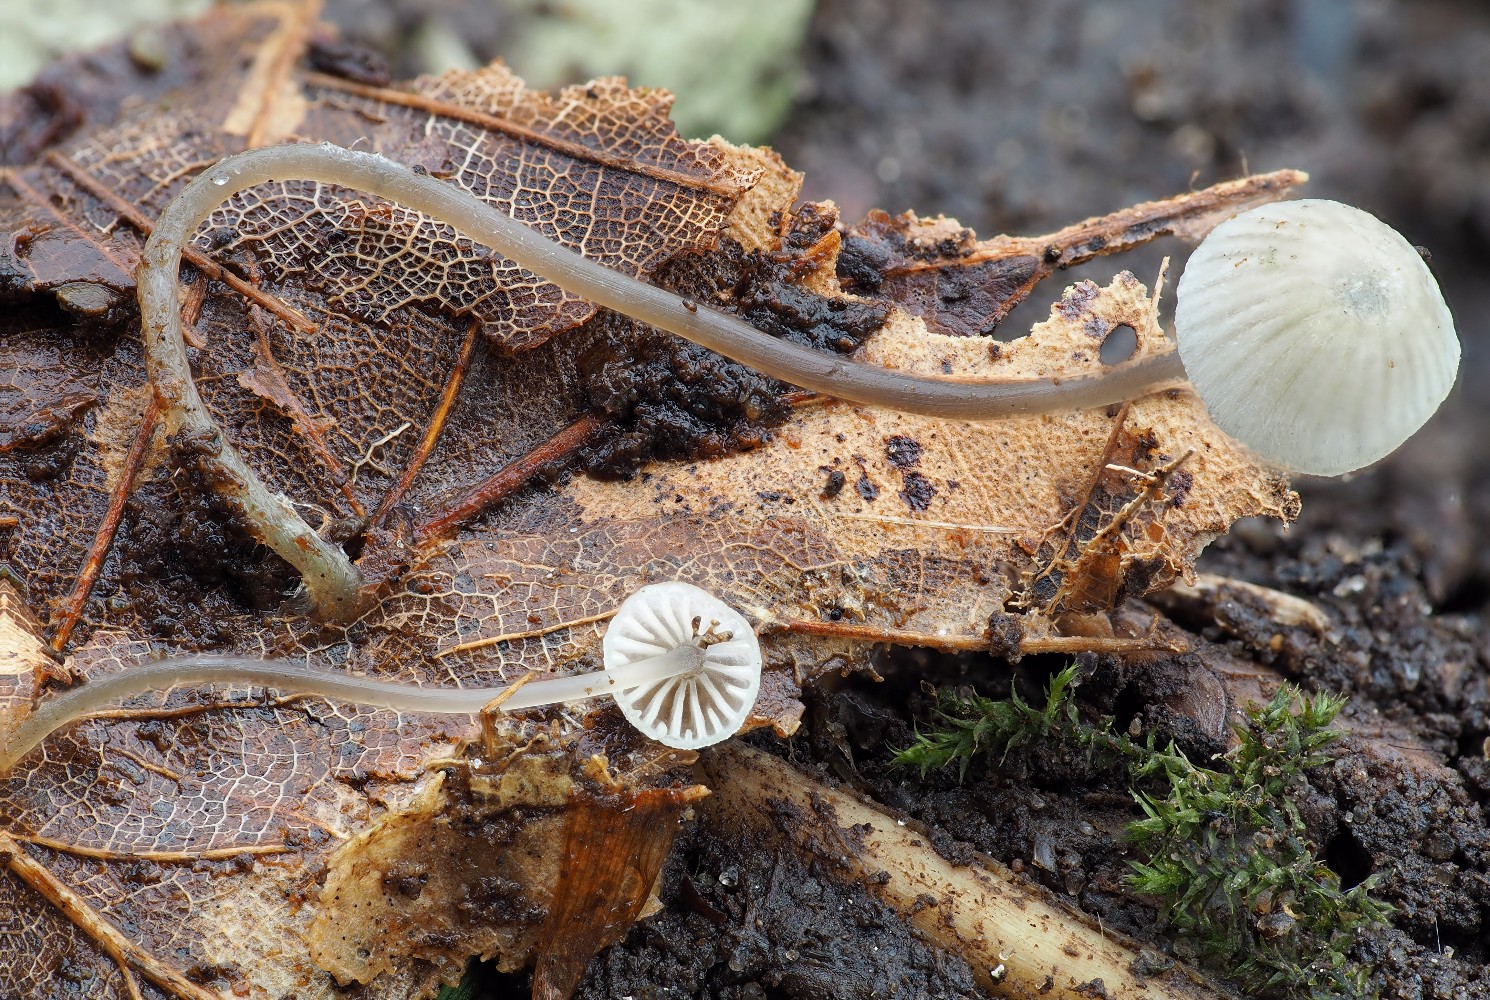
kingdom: Fungi
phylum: Basidiomycota
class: Agaricomycetes
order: Agaricales
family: Mycenaceae
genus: Mycena
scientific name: Mycena
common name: huesvamp
